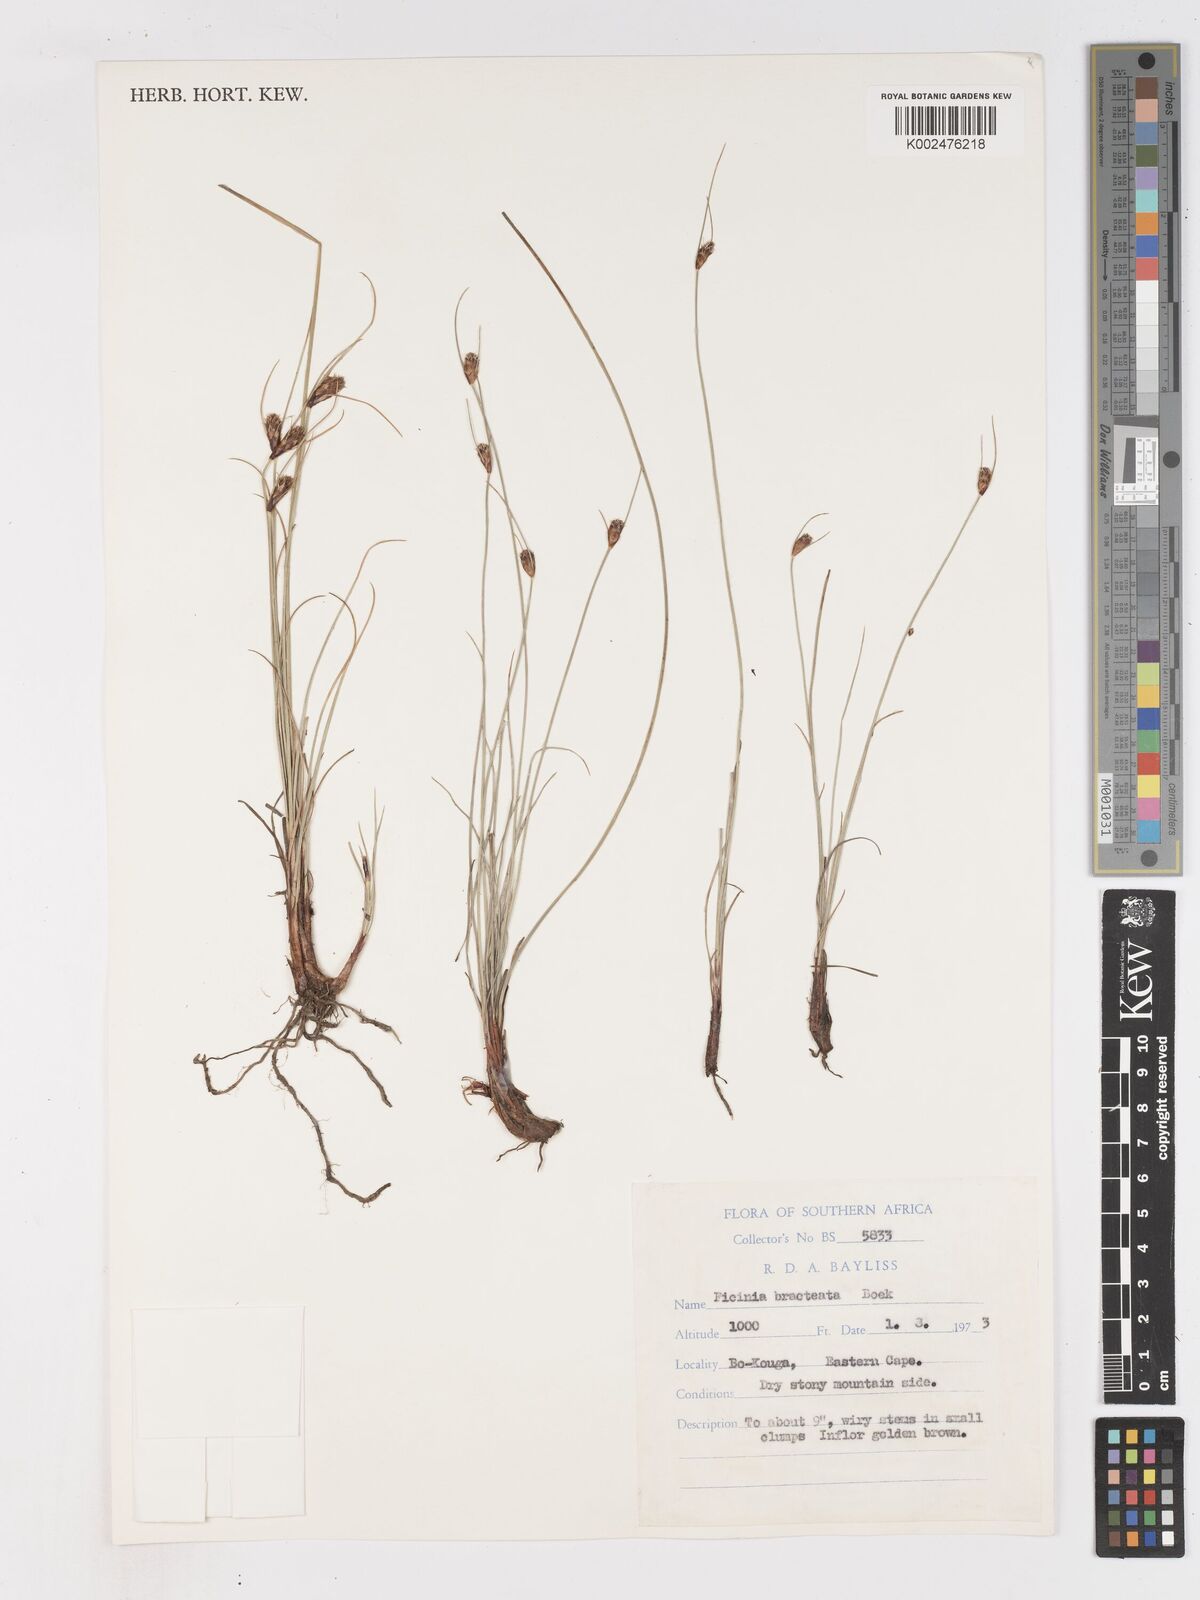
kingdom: Plantae
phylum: Tracheophyta
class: Liliopsida
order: Poales
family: Cyperaceae
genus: Ficinia
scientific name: Ficinia nigrescens
